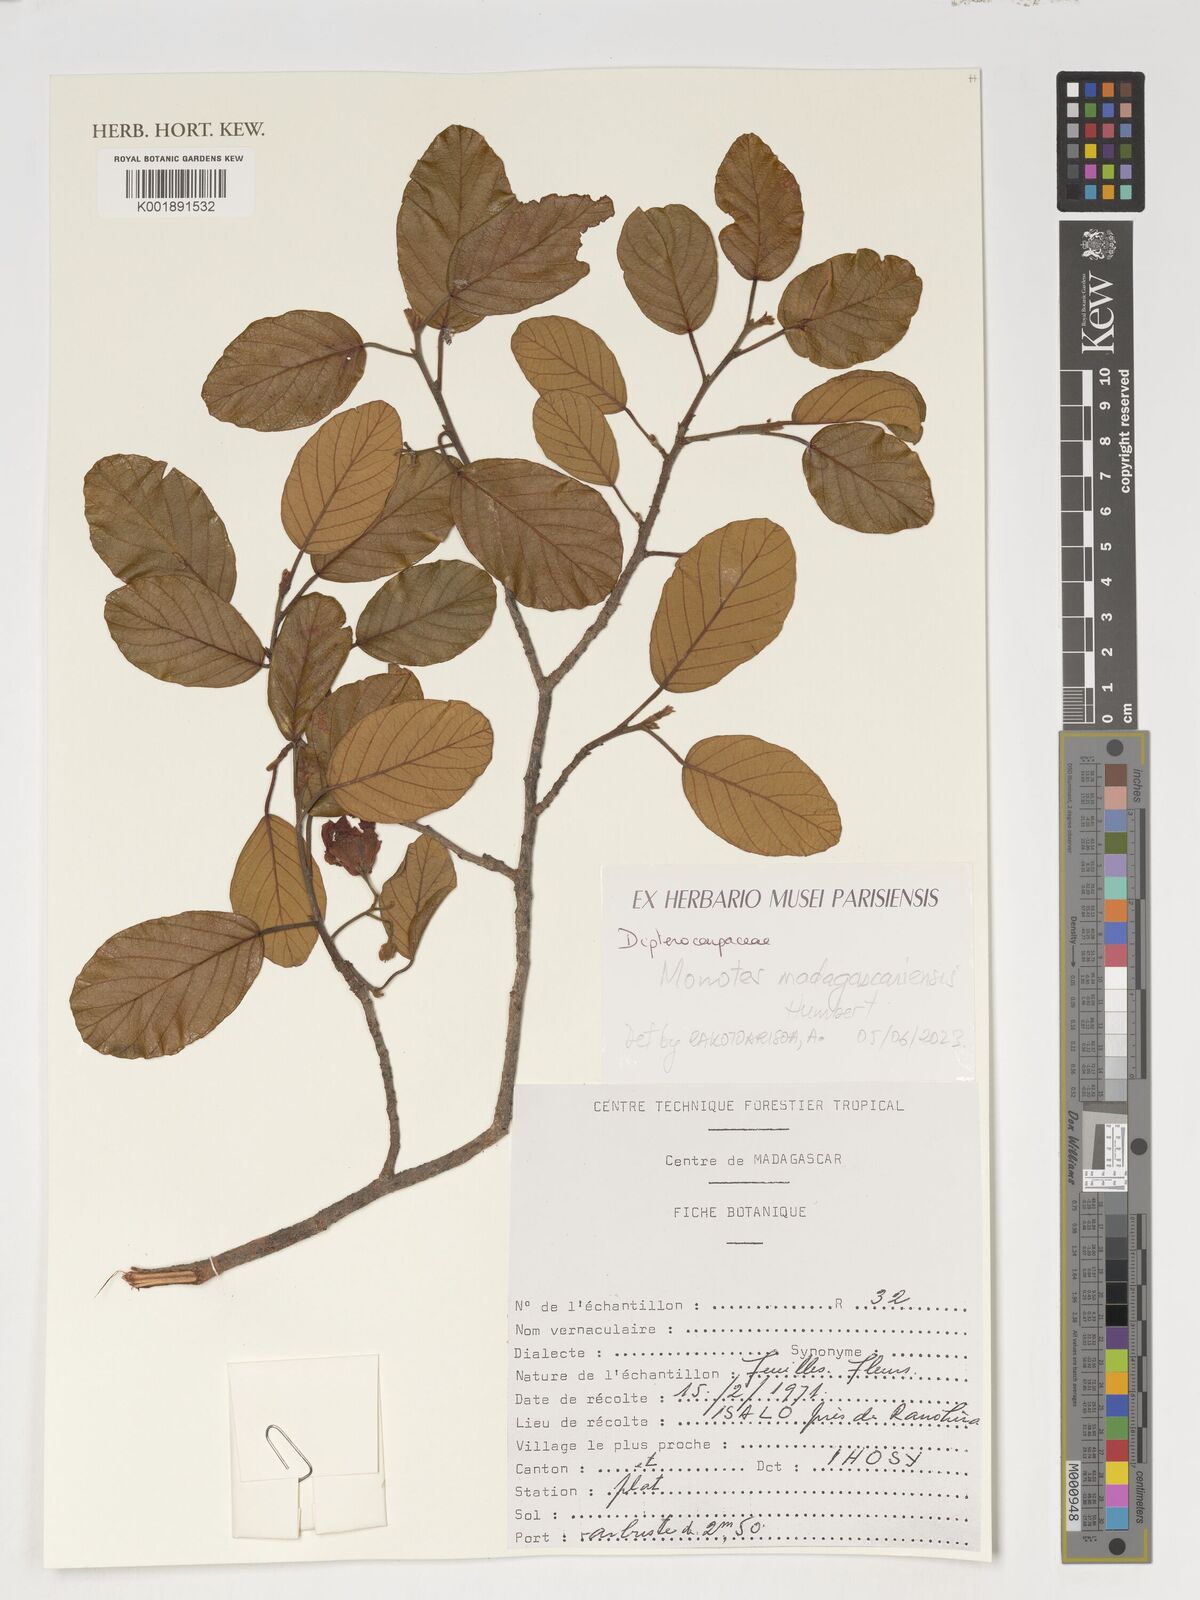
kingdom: Plantae
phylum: Tracheophyta
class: Magnoliopsida
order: Malvales
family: Dipterocarpaceae
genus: Monotes
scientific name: Monotes madagascariensis
